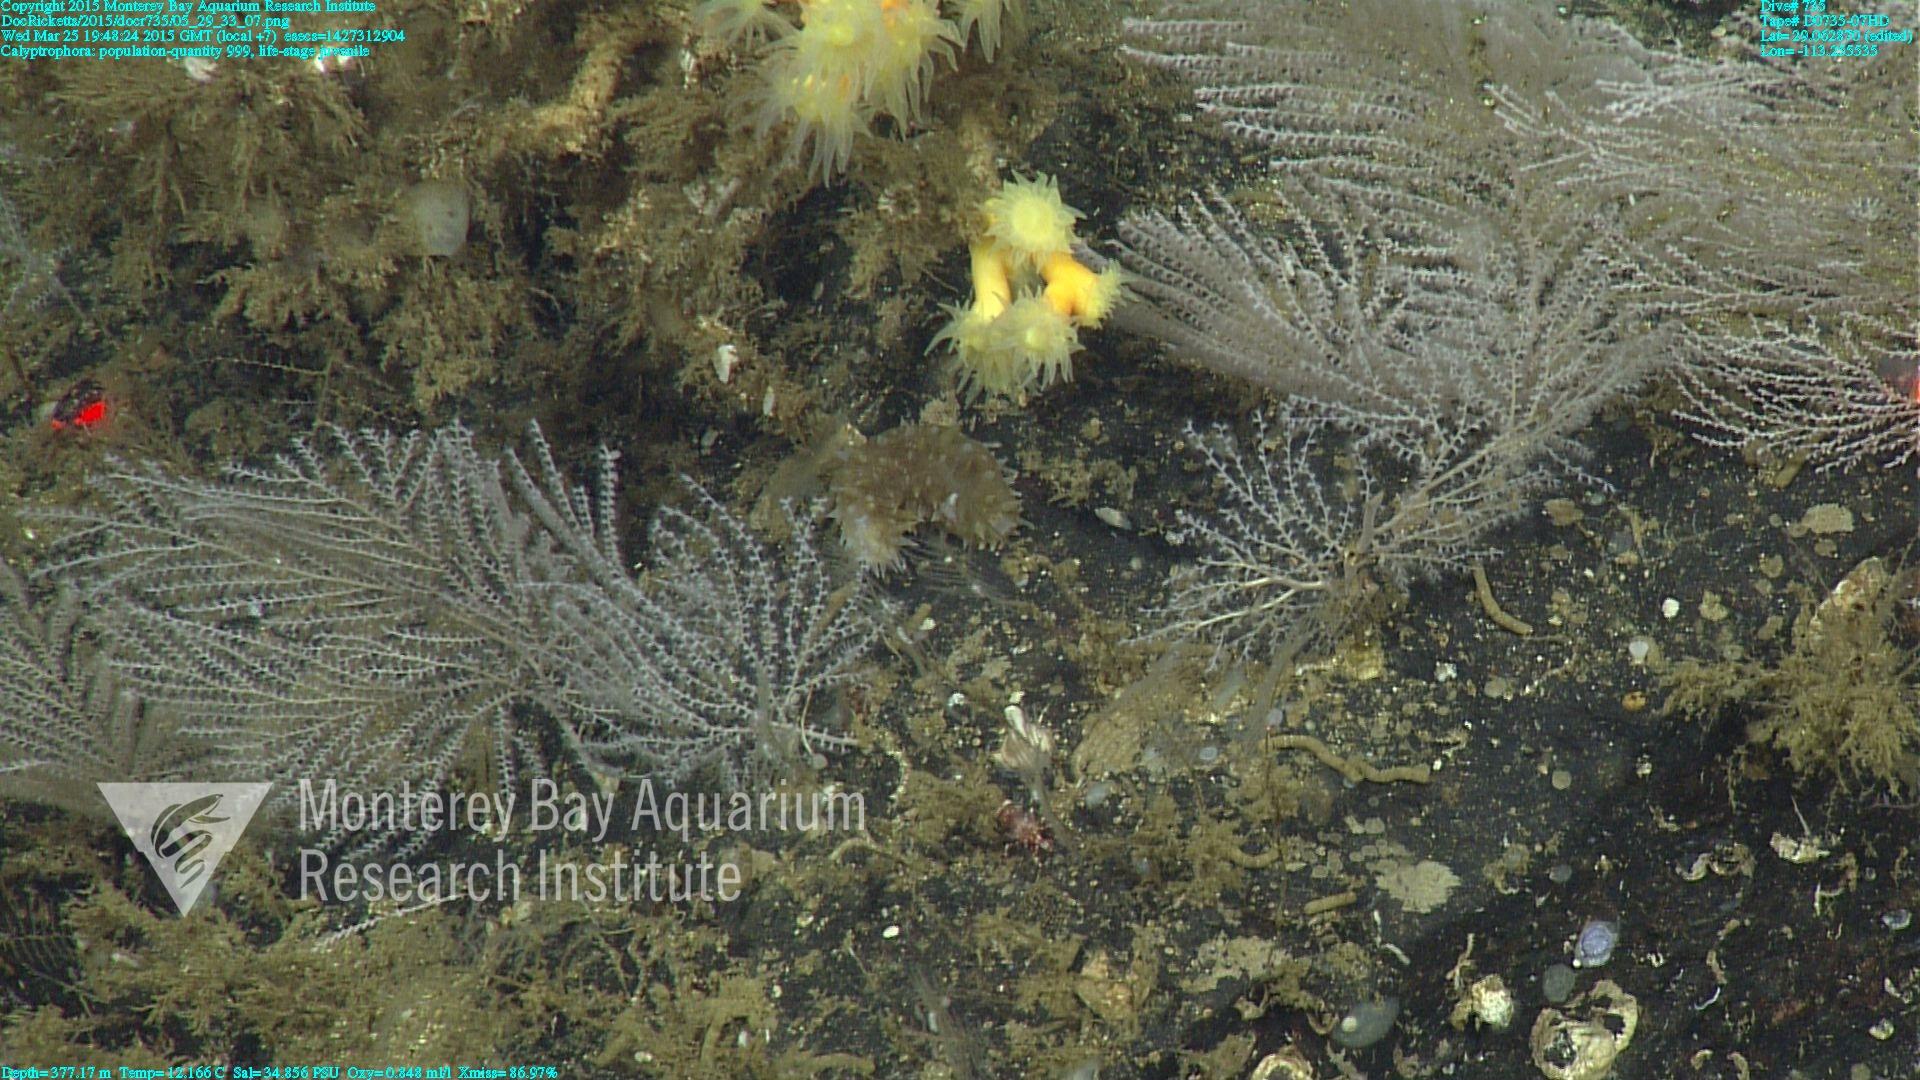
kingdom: Animalia
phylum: Cnidaria
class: Anthozoa
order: Scleralcyonacea
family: Primnoidae
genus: Calyptrophora
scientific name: Calyptrophora
